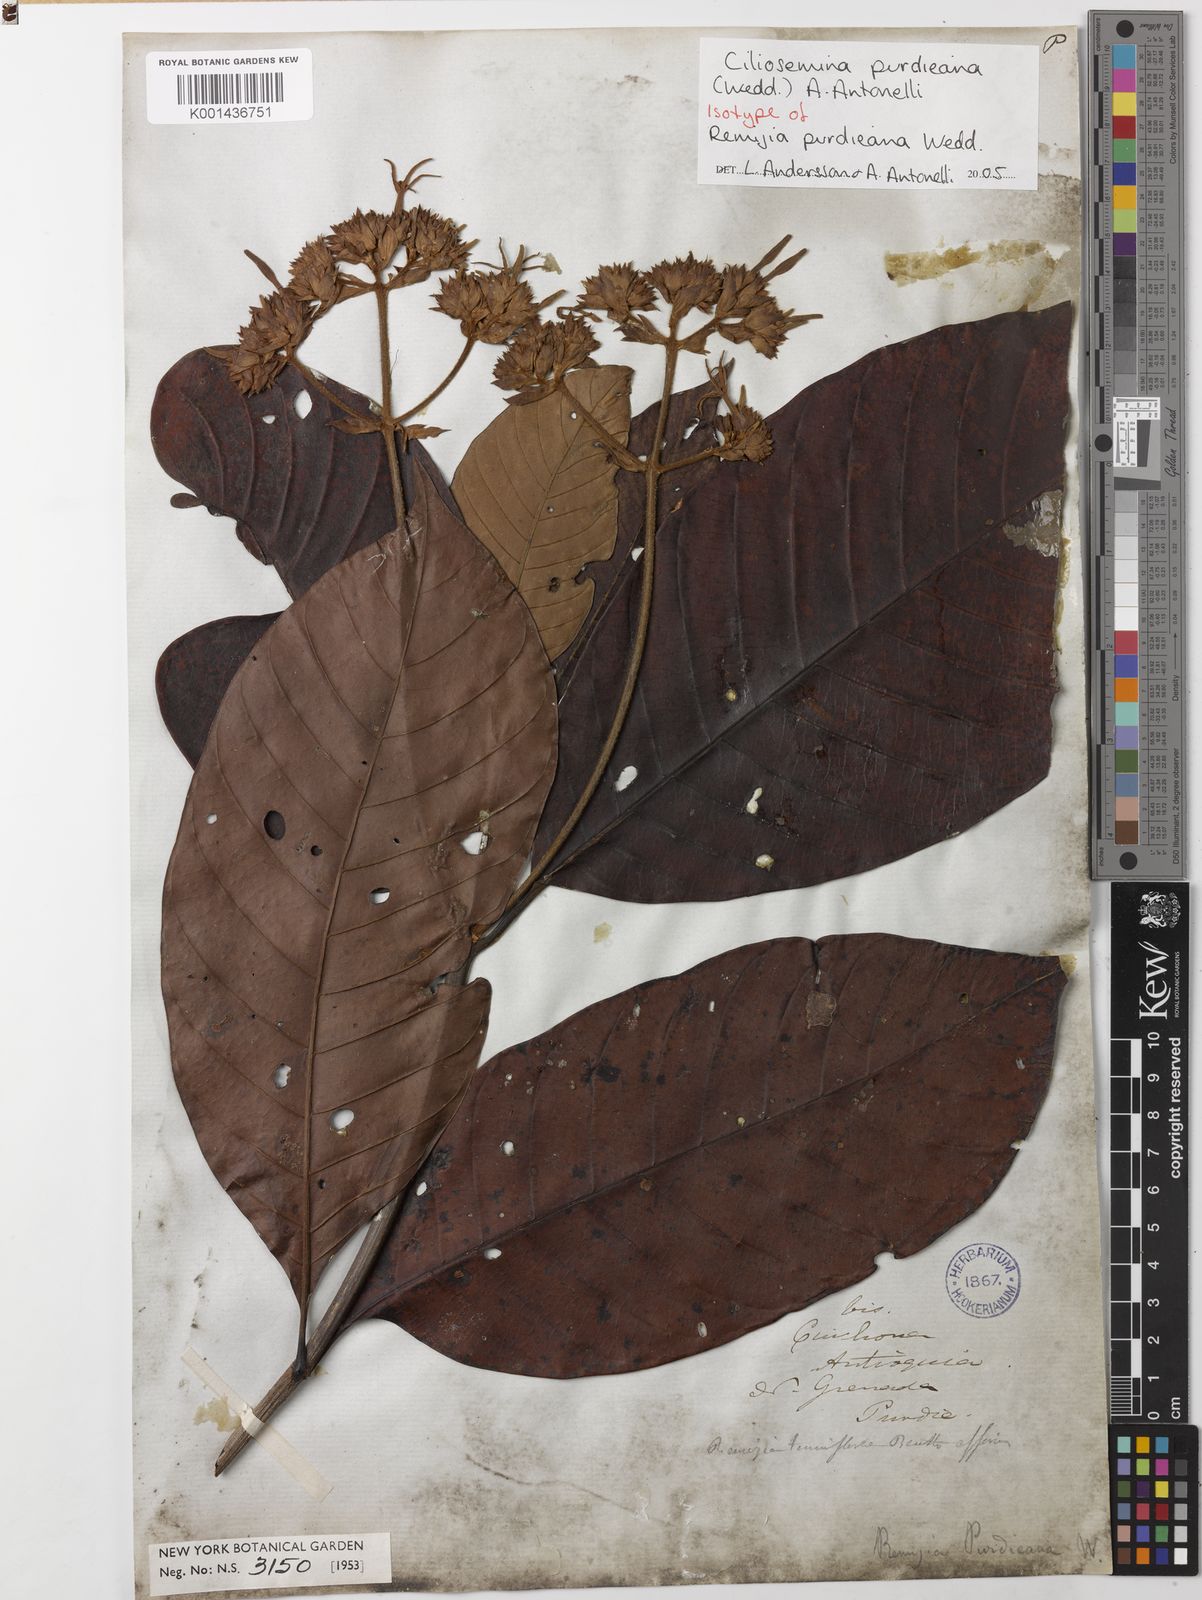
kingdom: Plantae
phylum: Tracheophyta
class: Magnoliopsida
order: Gentianales
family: Rubiaceae
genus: Ciliosemina
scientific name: Ciliosemina purdieana
